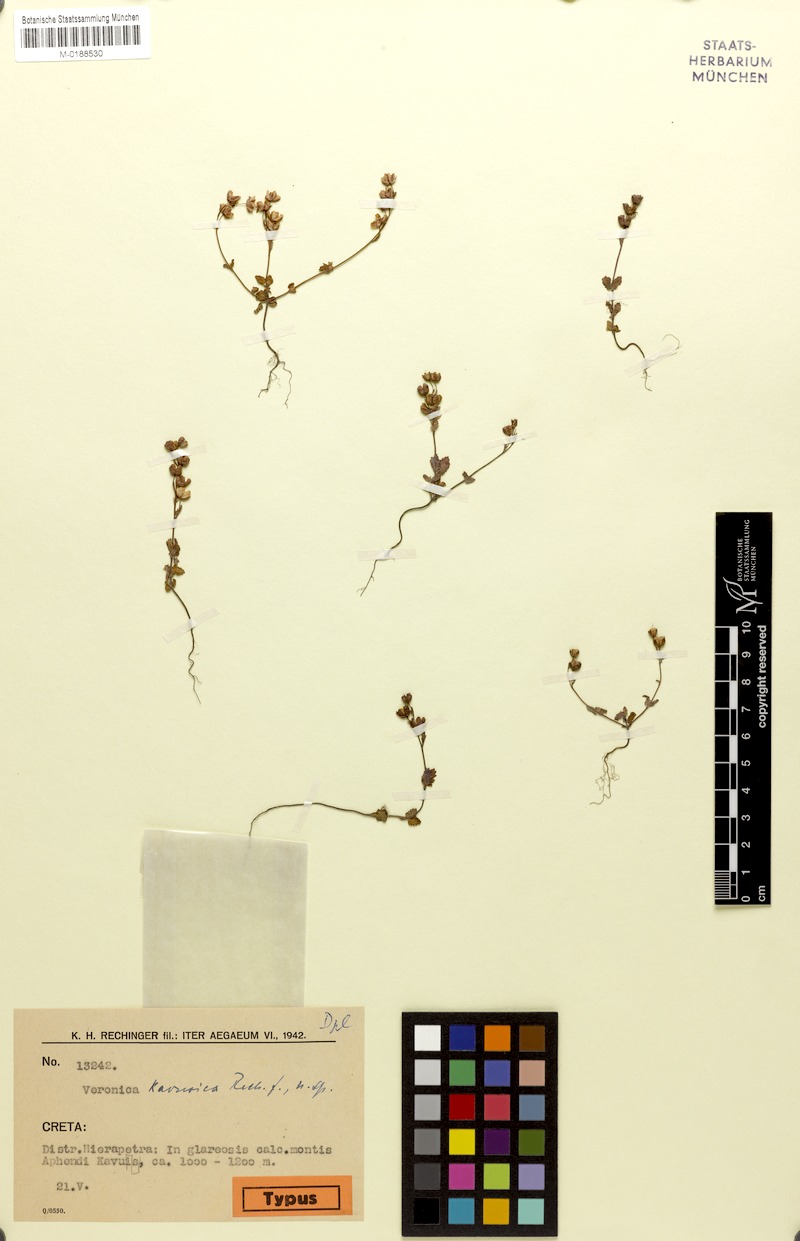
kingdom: Plantae
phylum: Tracheophyta
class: Magnoliopsida
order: Lamiales
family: Plantaginaceae
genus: Veronica
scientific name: Veronica glauca
